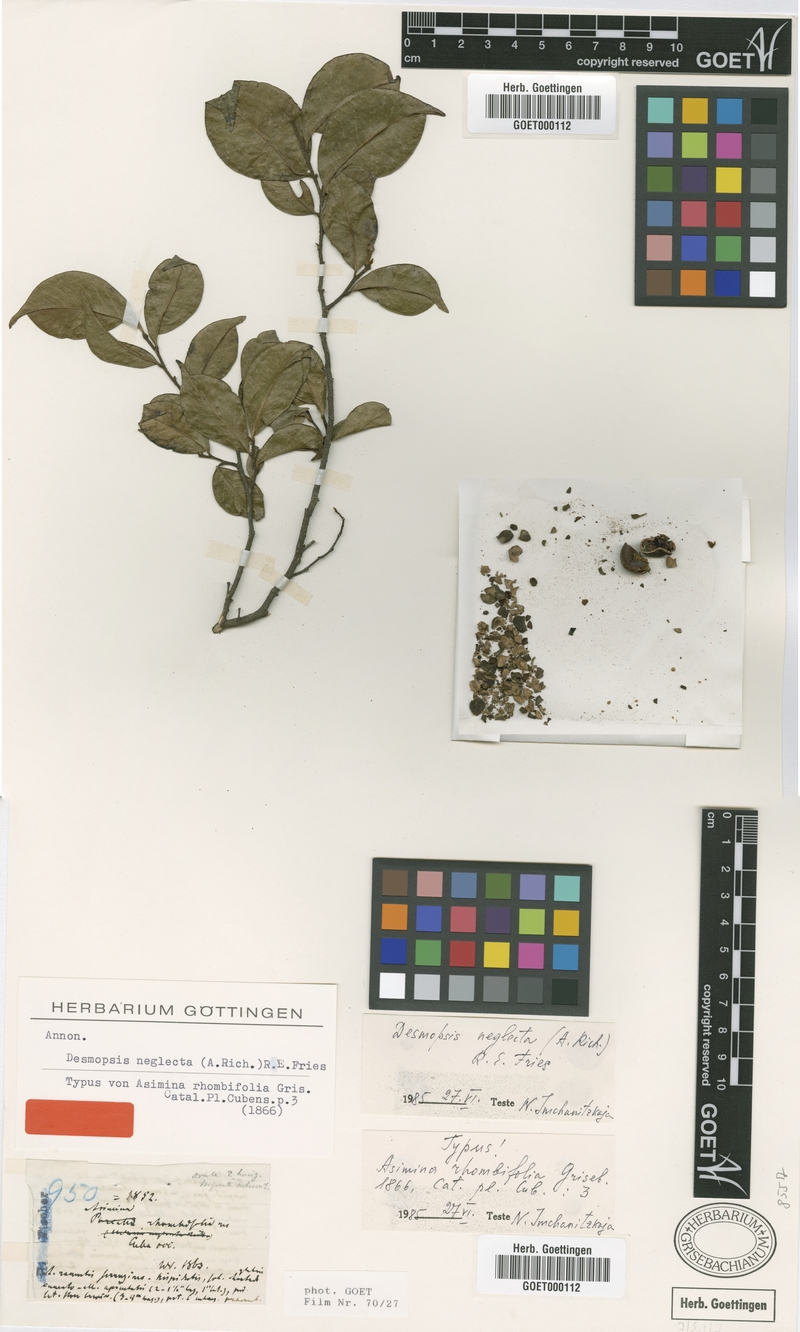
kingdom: Plantae
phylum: Tracheophyta
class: Magnoliopsida
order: Magnoliales
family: Annonaceae
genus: Desmopsis
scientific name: Desmopsis neglecta
